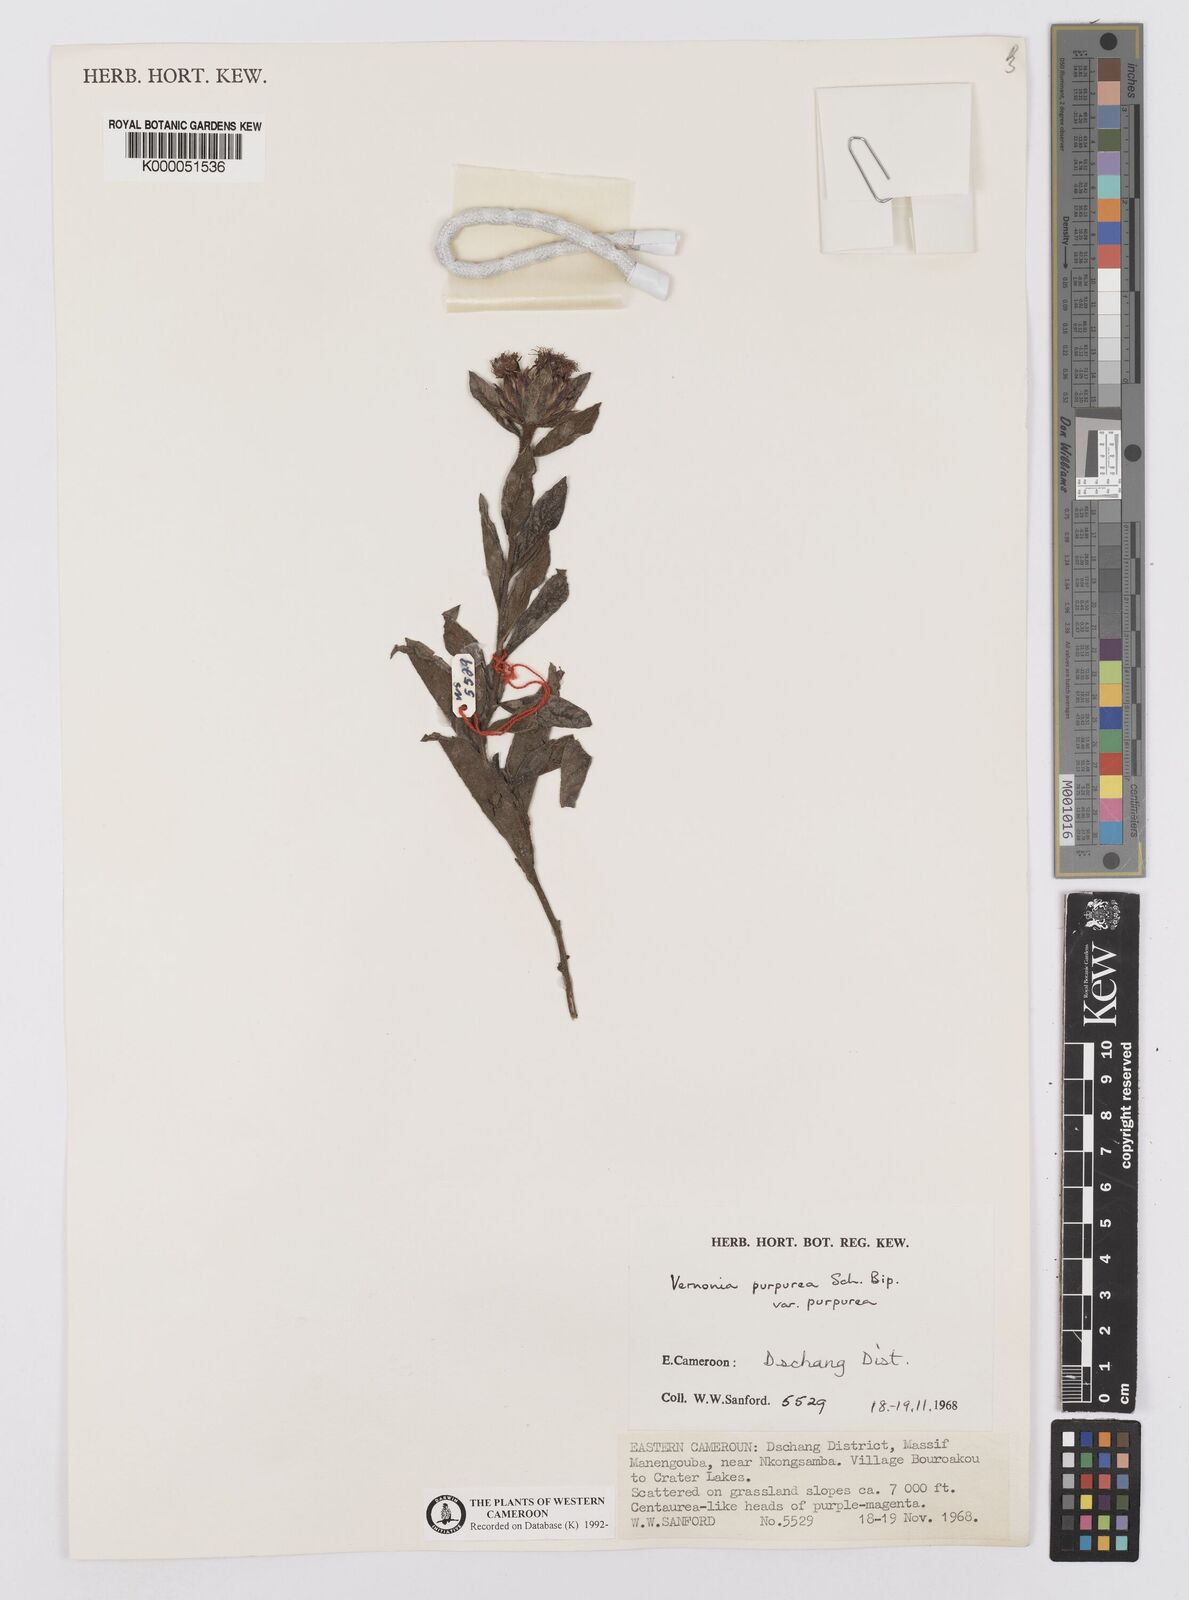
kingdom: Plantae
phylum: Tracheophyta
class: Magnoliopsida
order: Asterales
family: Asteraceae
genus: Vernonia
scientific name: Vernonia
